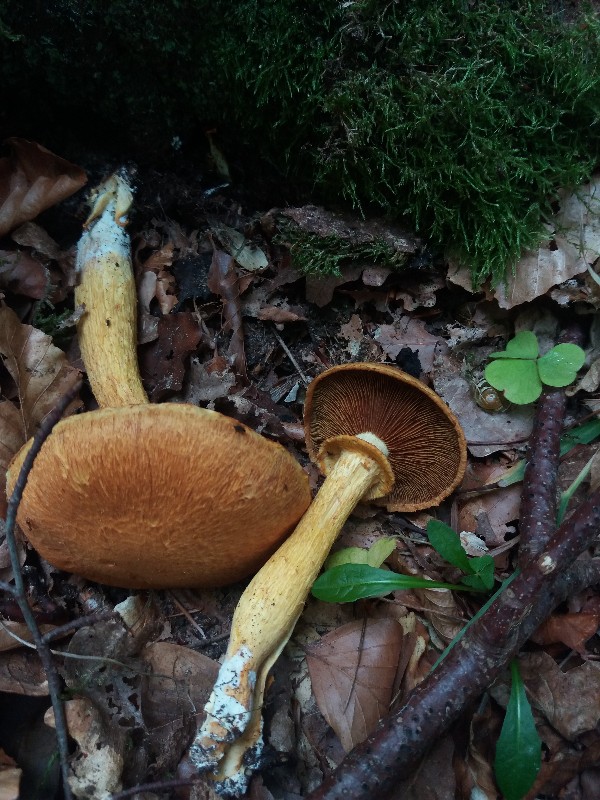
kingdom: Fungi
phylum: Basidiomycota
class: Agaricomycetes
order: Agaricales
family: Hymenogastraceae
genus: Gymnopilus
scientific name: Gymnopilus spectabilis
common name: fibret flammehat
